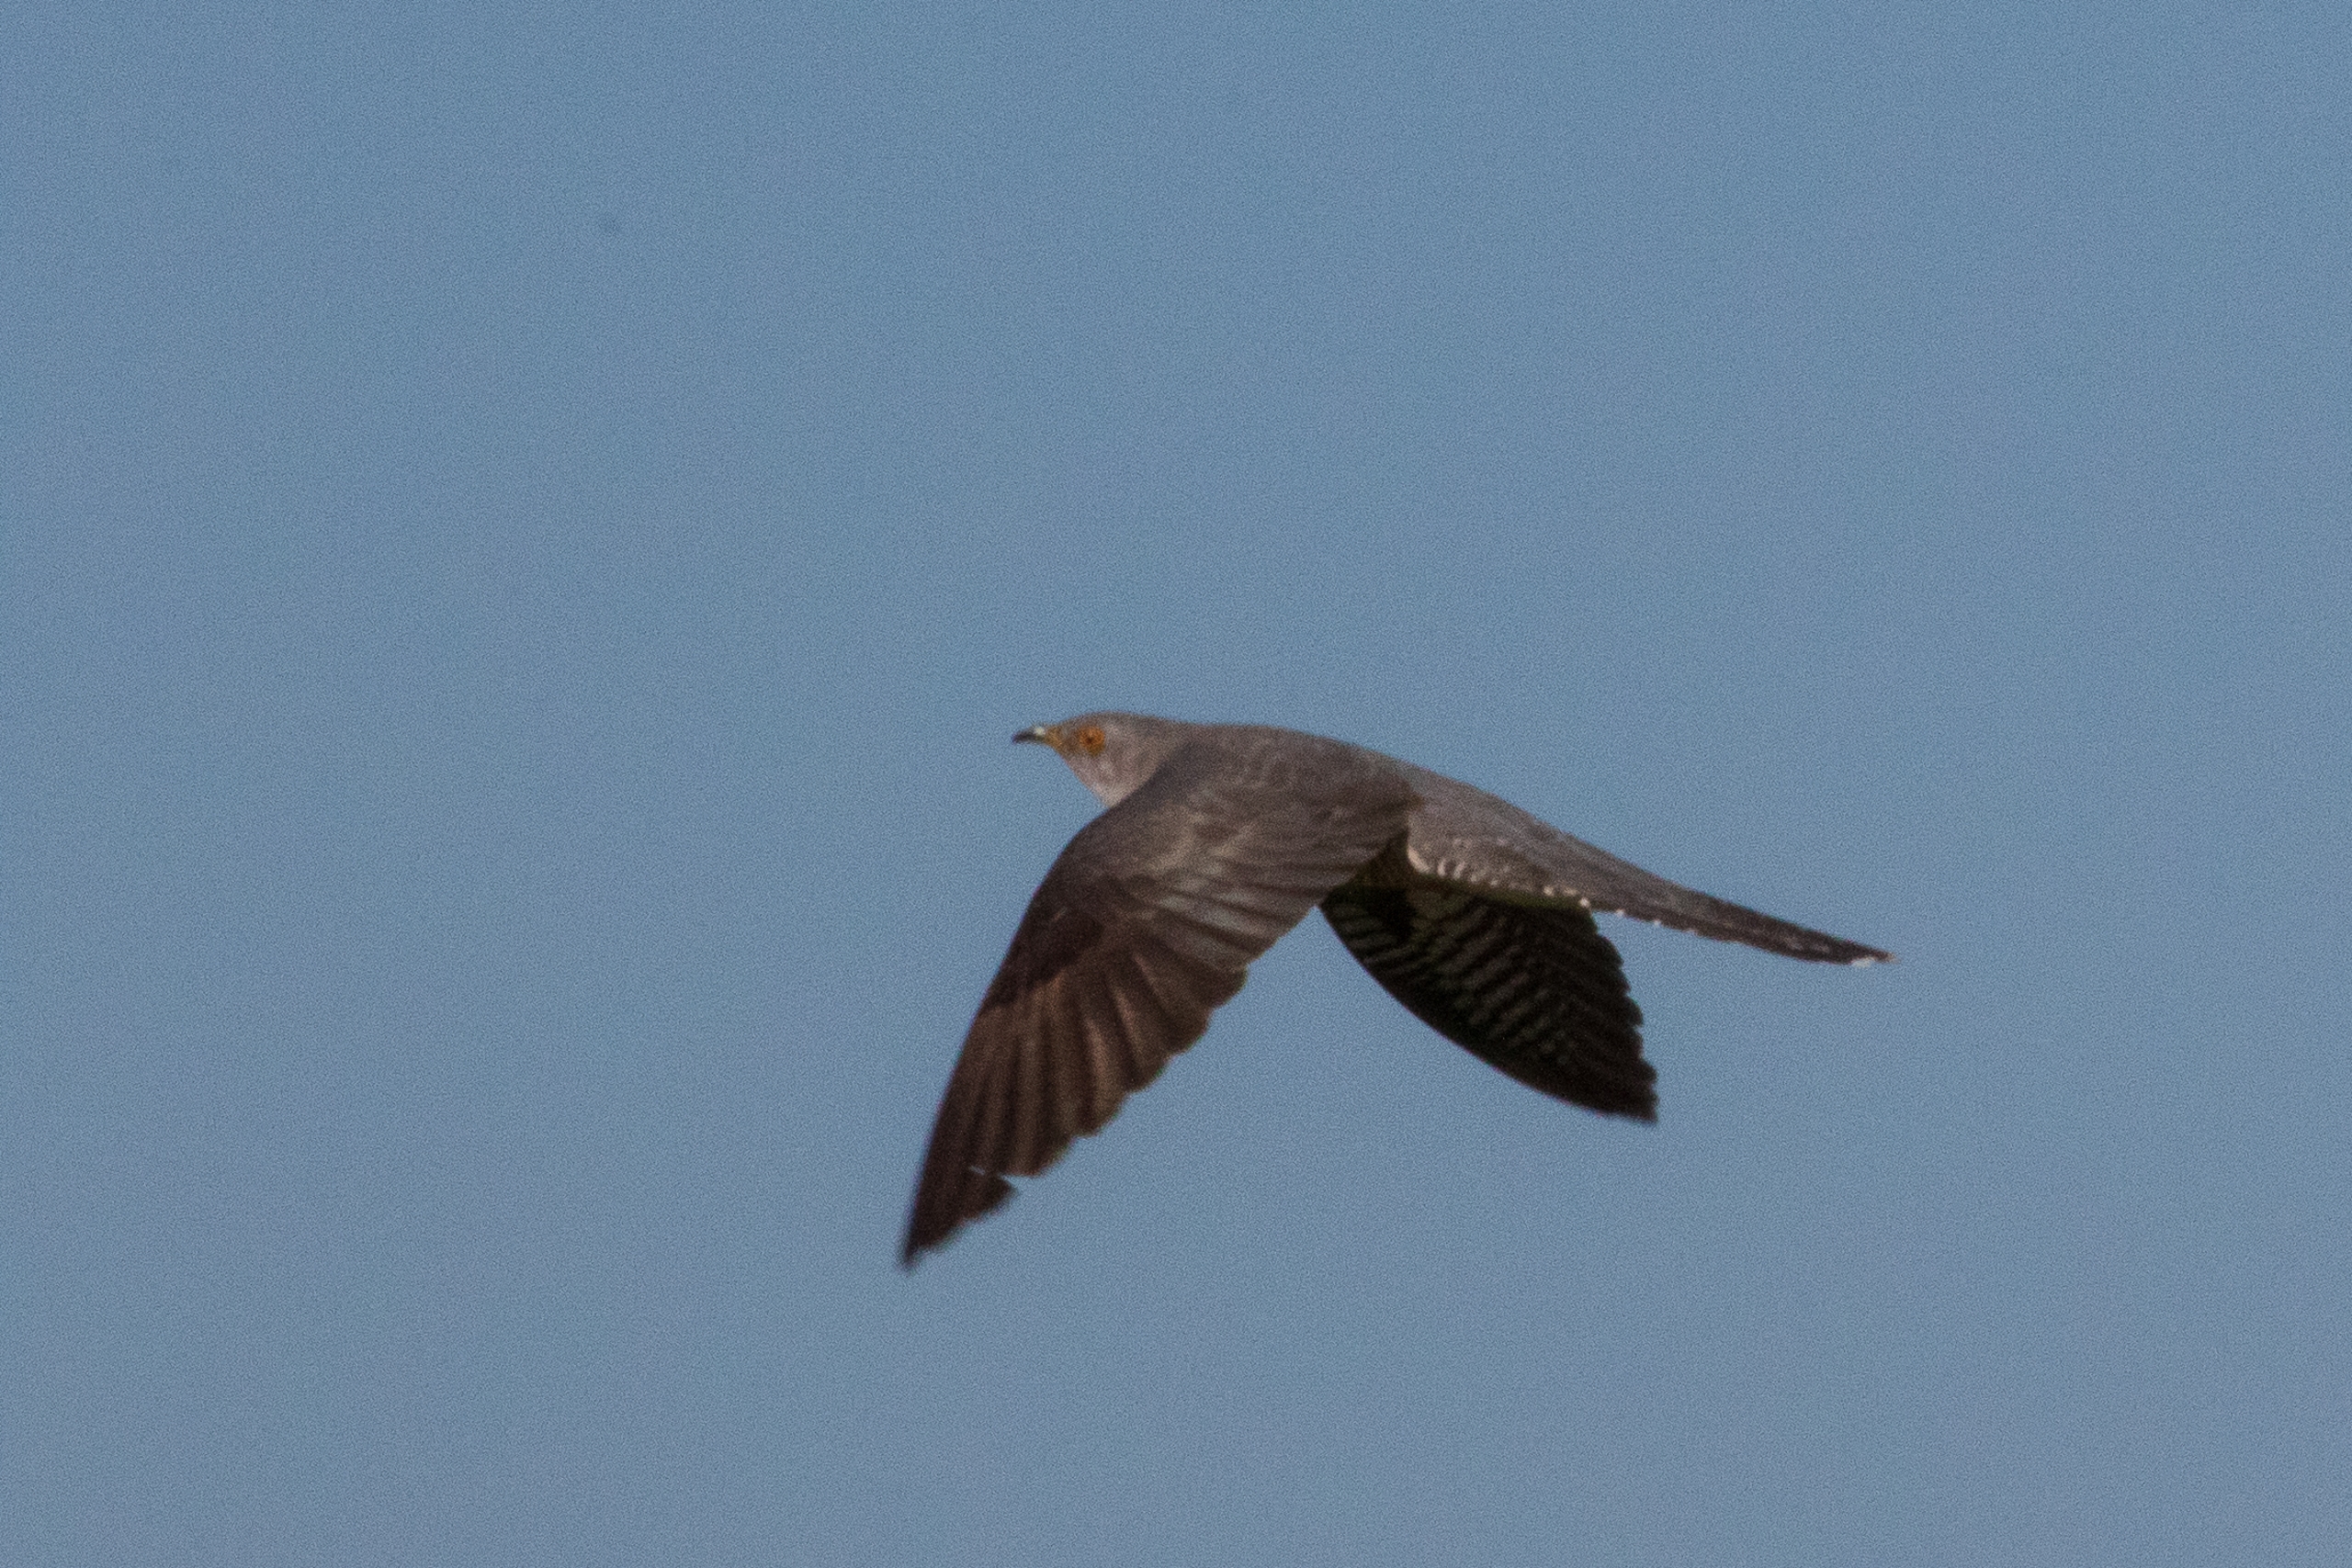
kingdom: Animalia
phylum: Chordata
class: Aves
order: Cuculiformes
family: Cuculidae
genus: Cuculus
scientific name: Cuculus canorus
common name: Gøg
